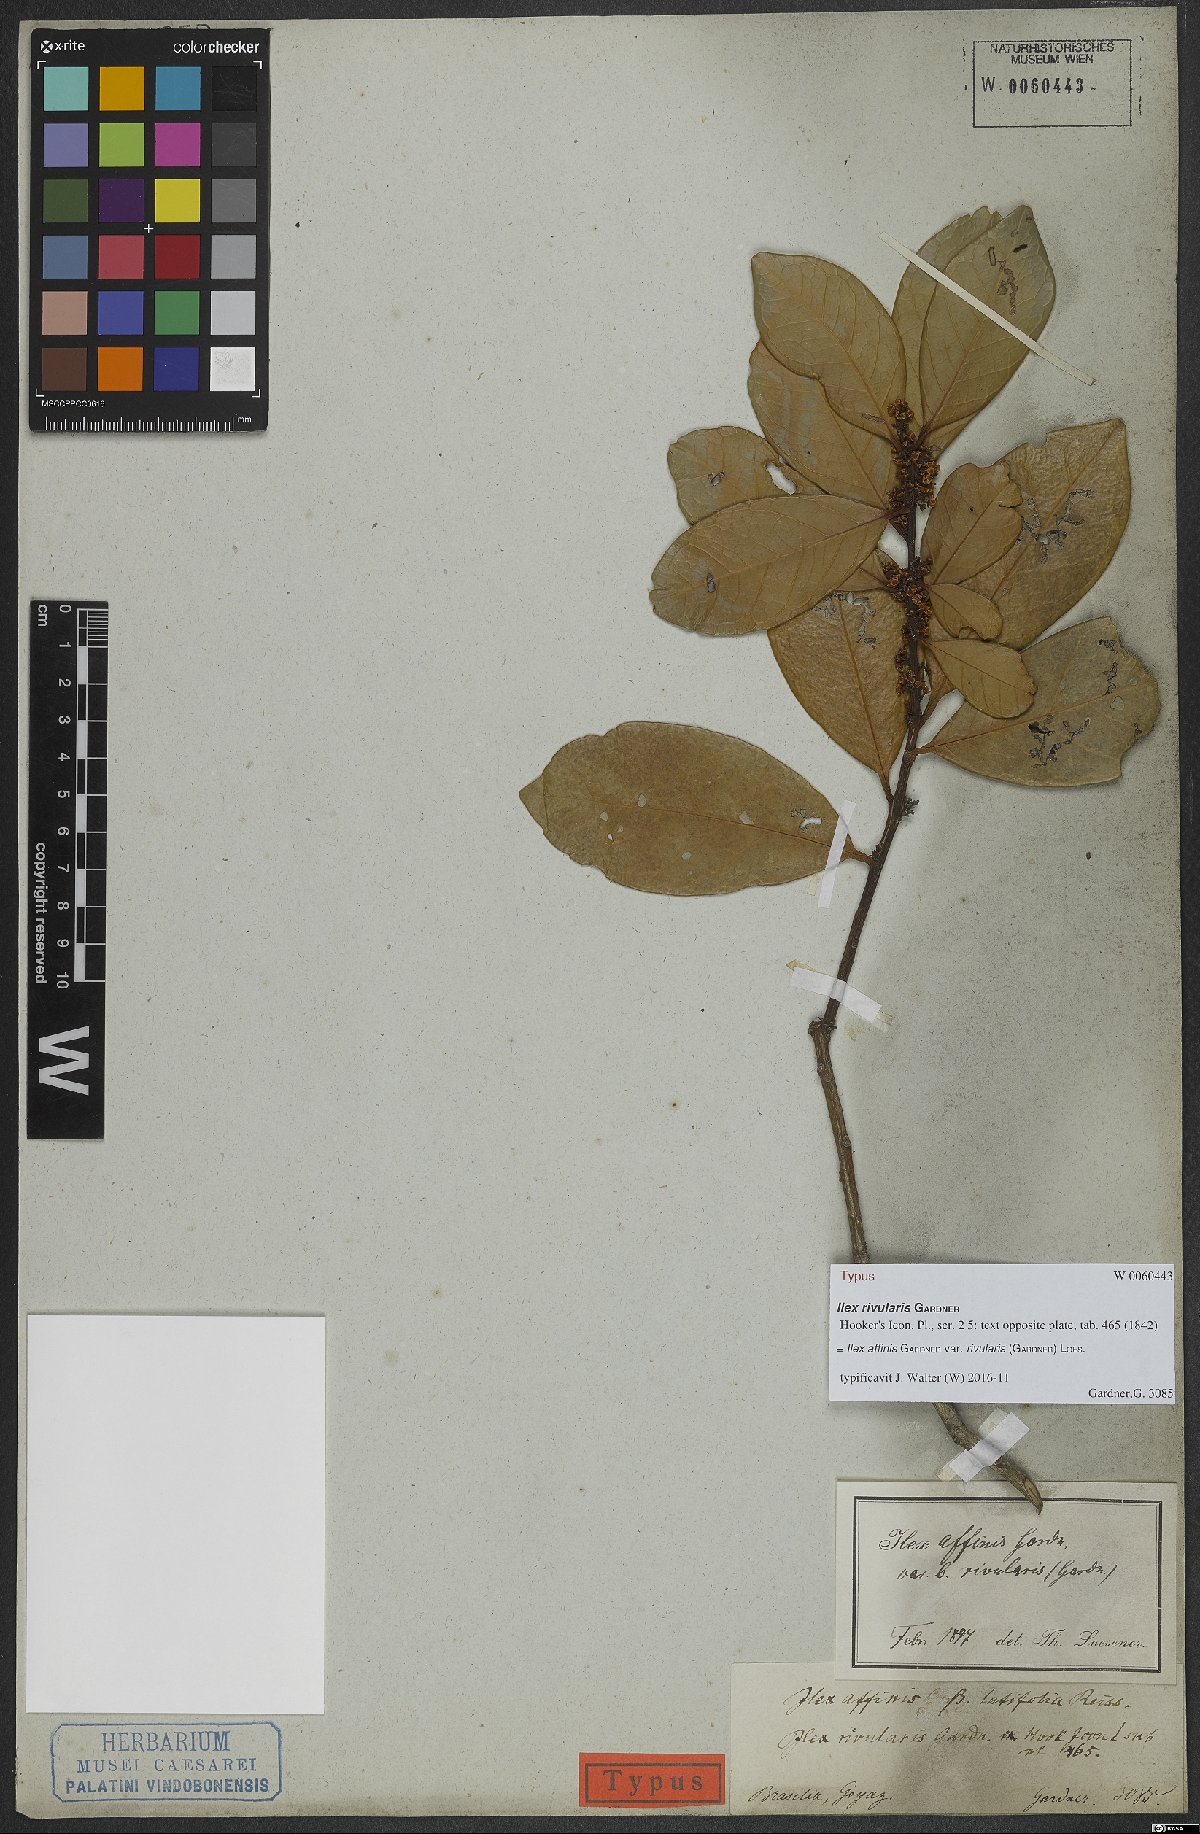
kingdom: Plantae
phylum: Tracheophyta
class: Magnoliopsida
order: Aquifoliales
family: Aquifoliaceae
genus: Ilex
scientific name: Ilex affinis
